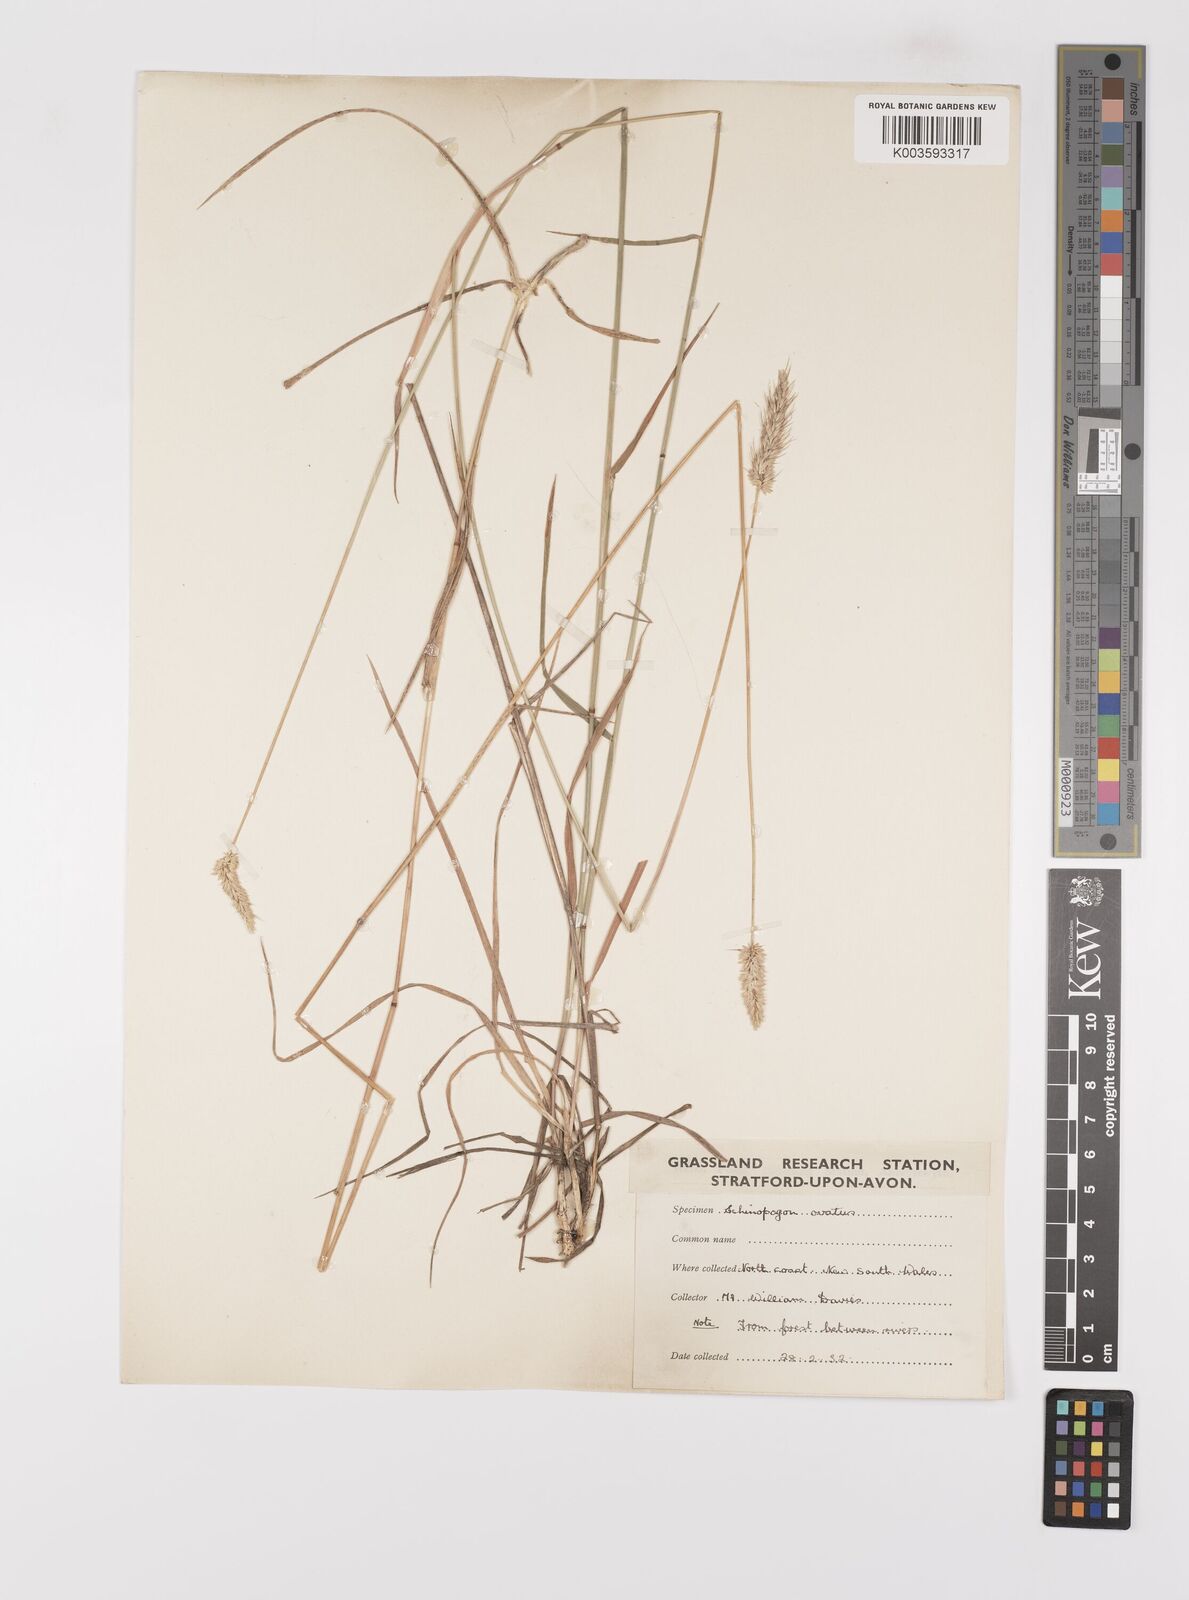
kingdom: Plantae
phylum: Tracheophyta
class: Liliopsida
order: Poales
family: Poaceae
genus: Echinopogon
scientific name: Echinopogon ovatus
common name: Hedgehog-grass
